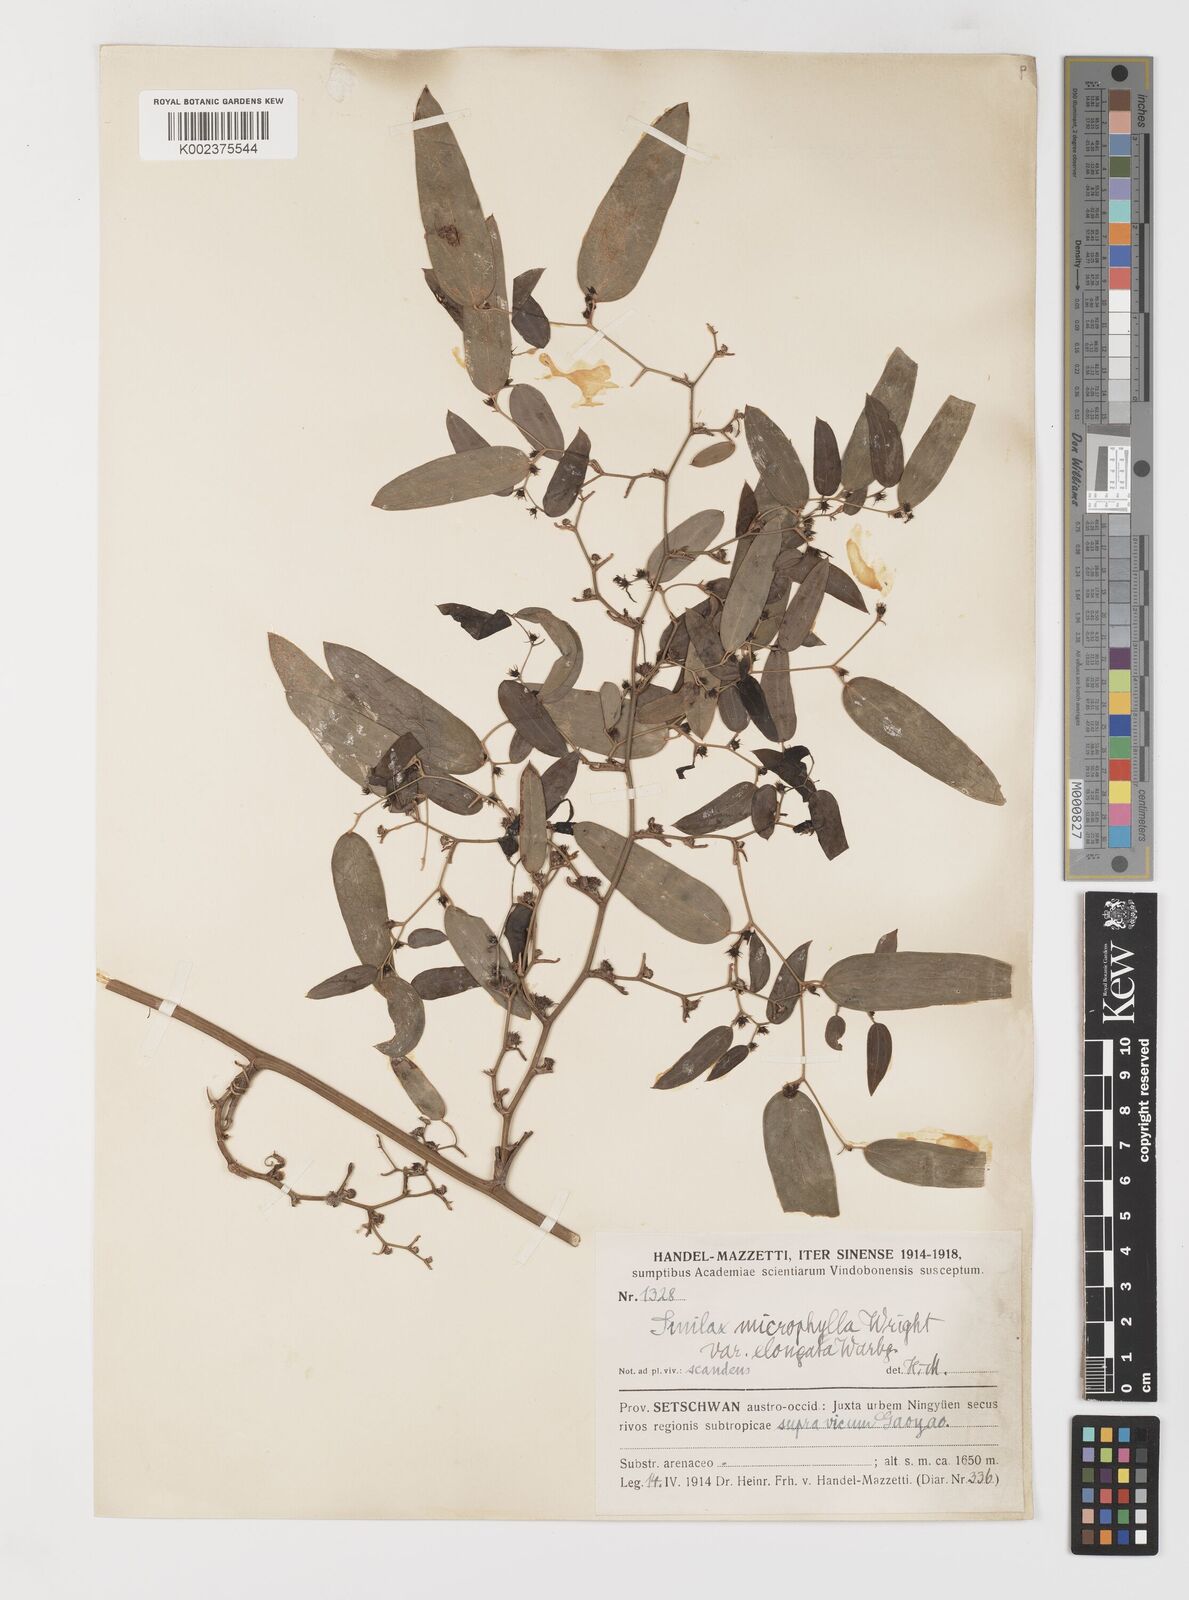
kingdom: Plantae
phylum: Tracheophyta
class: Liliopsida
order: Liliales
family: Smilacaceae
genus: Smilax
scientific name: Smilax lanceifolia
